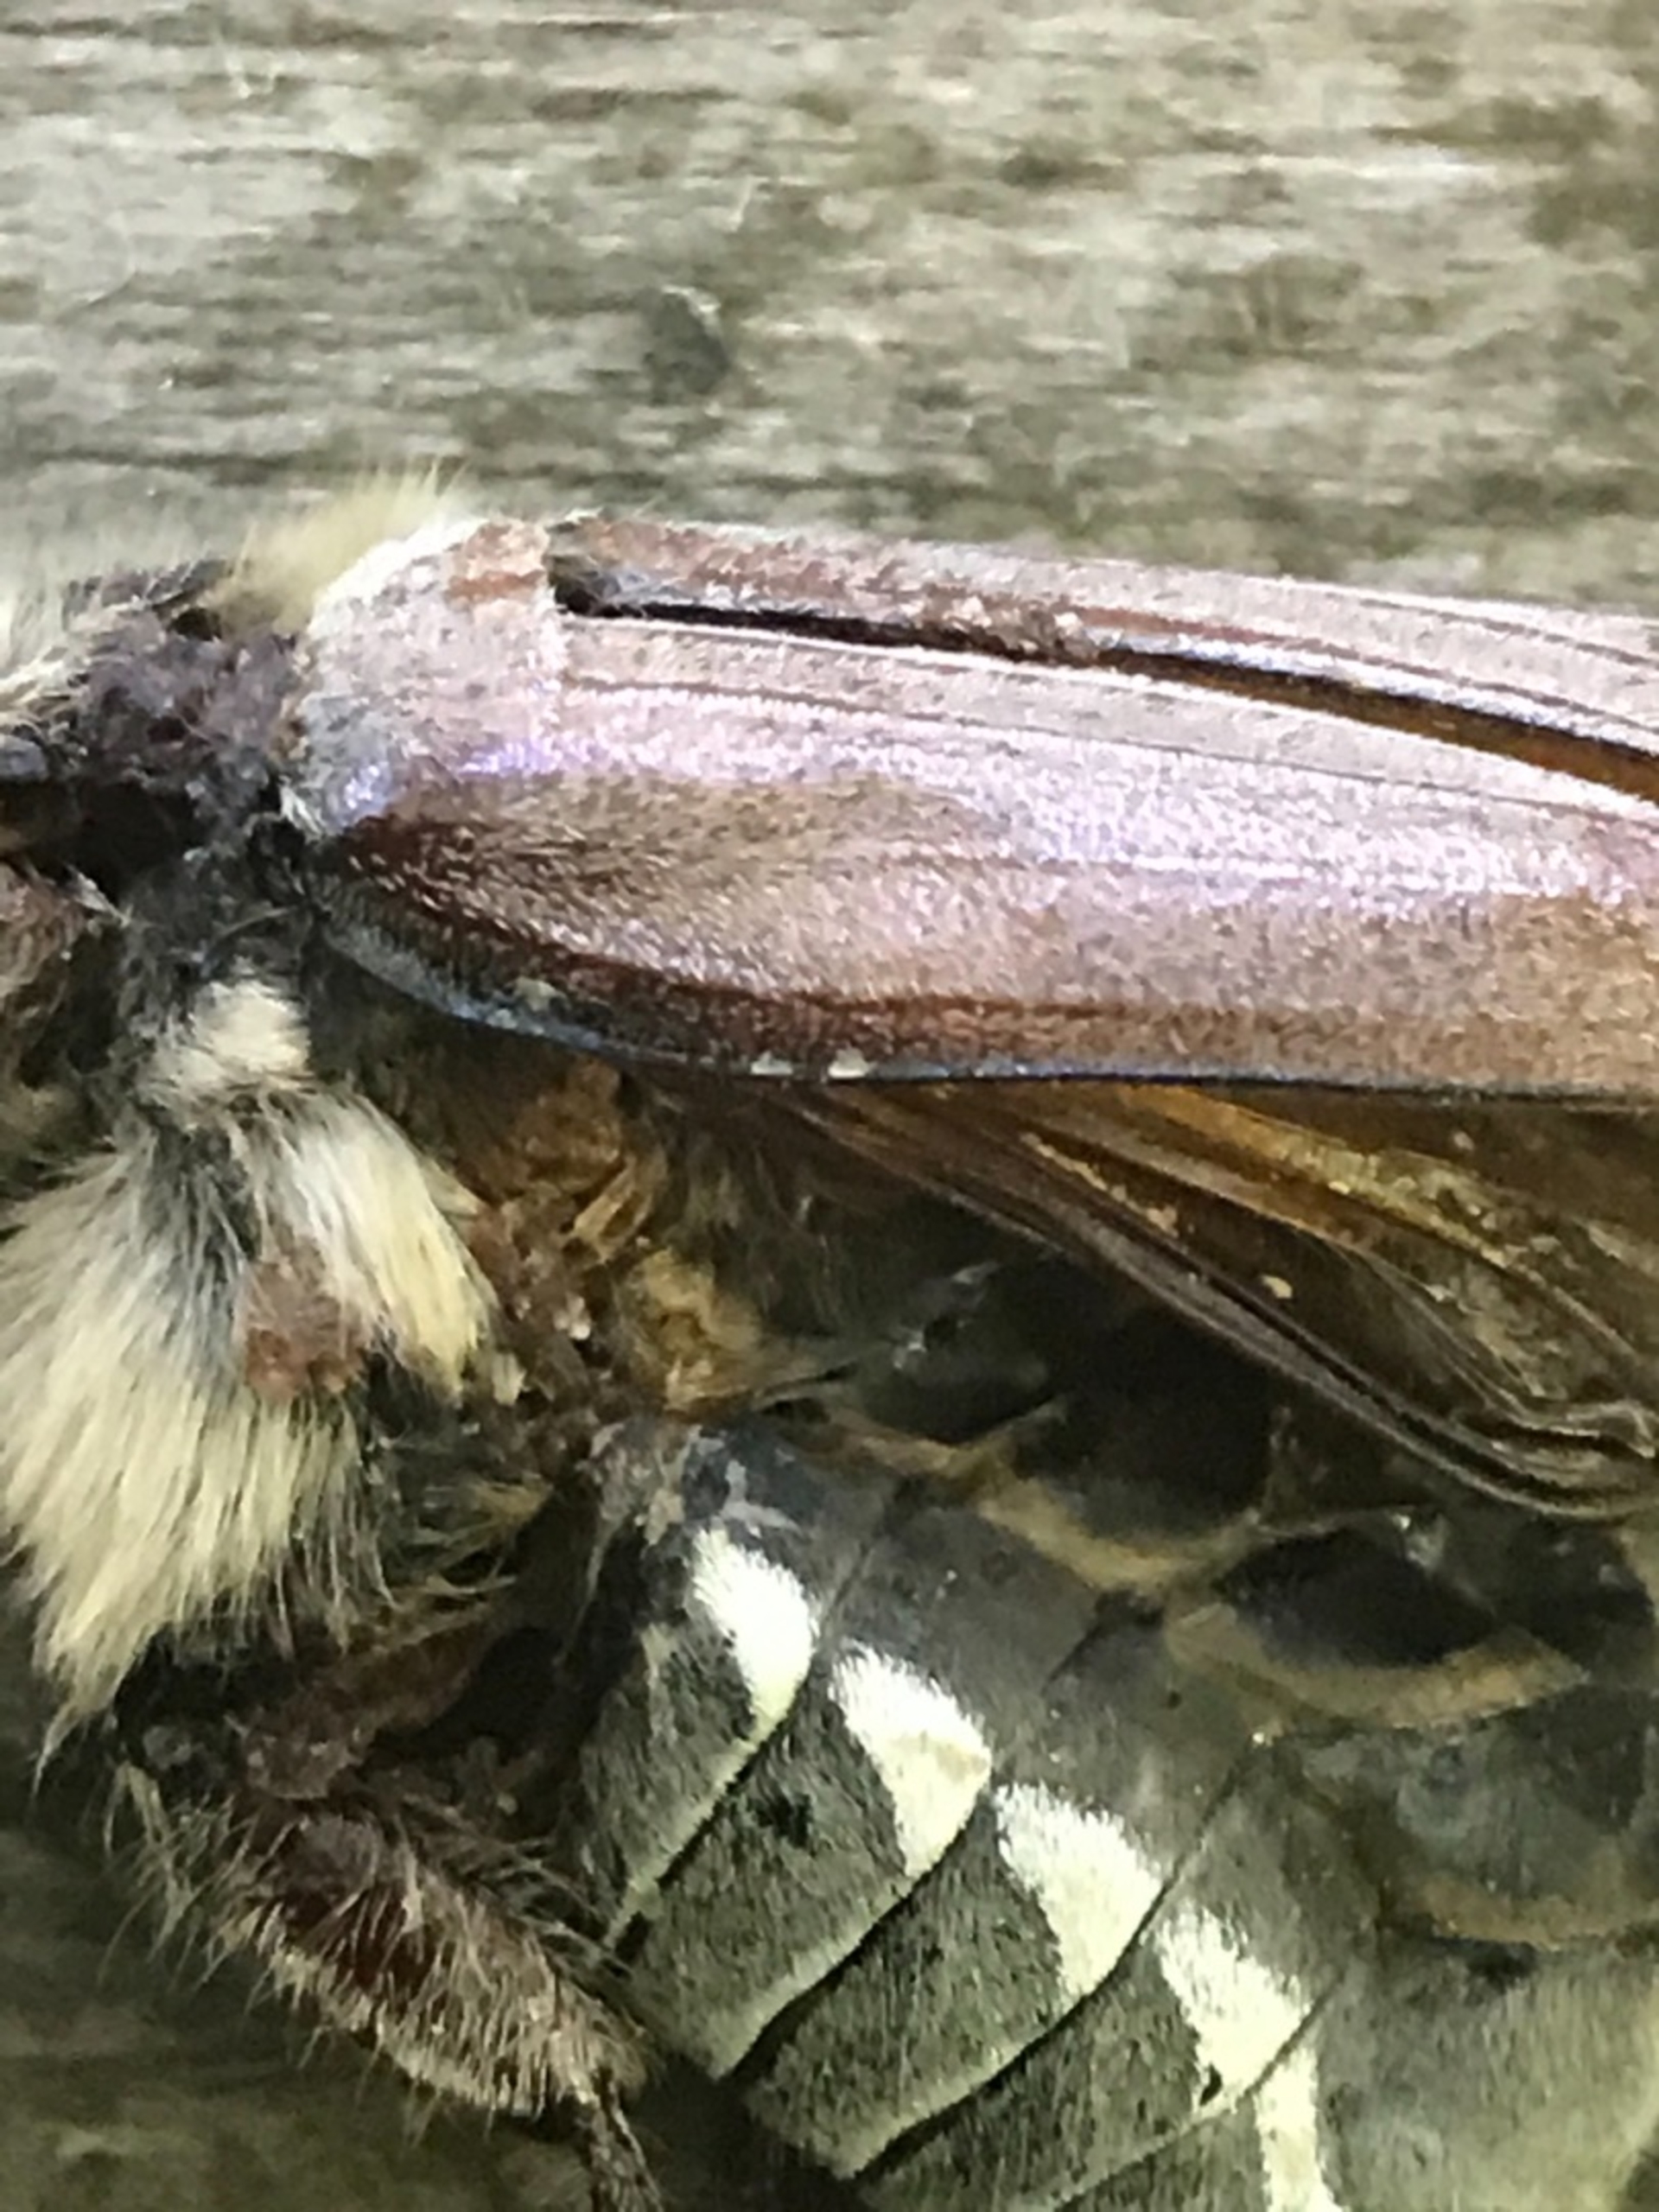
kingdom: Animalia
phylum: Arthropoda
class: Insecta
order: Coleoptera
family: Scarabaeidae
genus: Melolontha
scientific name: Melolontha hippocastani
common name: Sortrandet oldenborre
